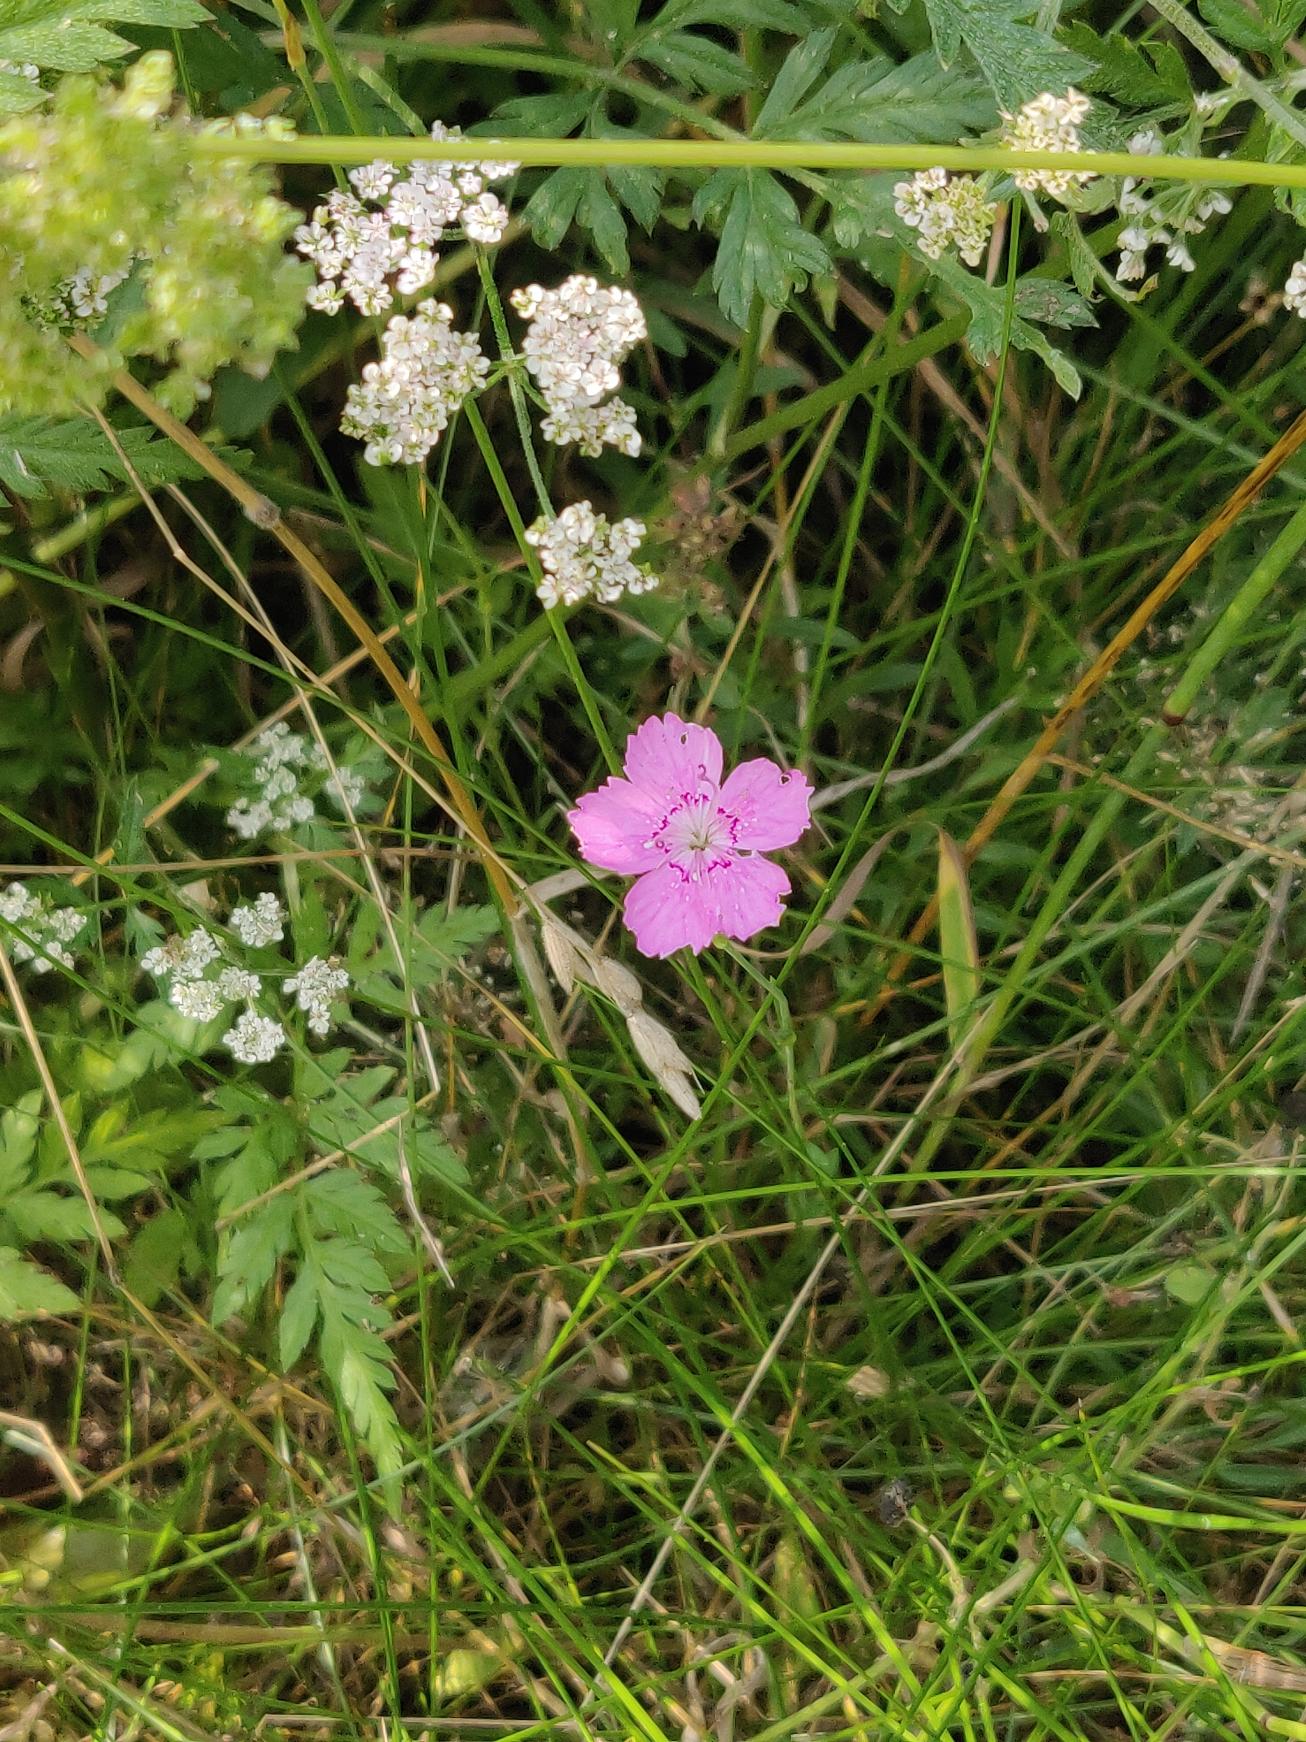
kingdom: Plantae
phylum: Tracheophyta
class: Magnoliopsida
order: Caryophyllales
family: Caryophyllaceae
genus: Dianthus
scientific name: Dianthus deltoides
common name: Bakke-nellike
